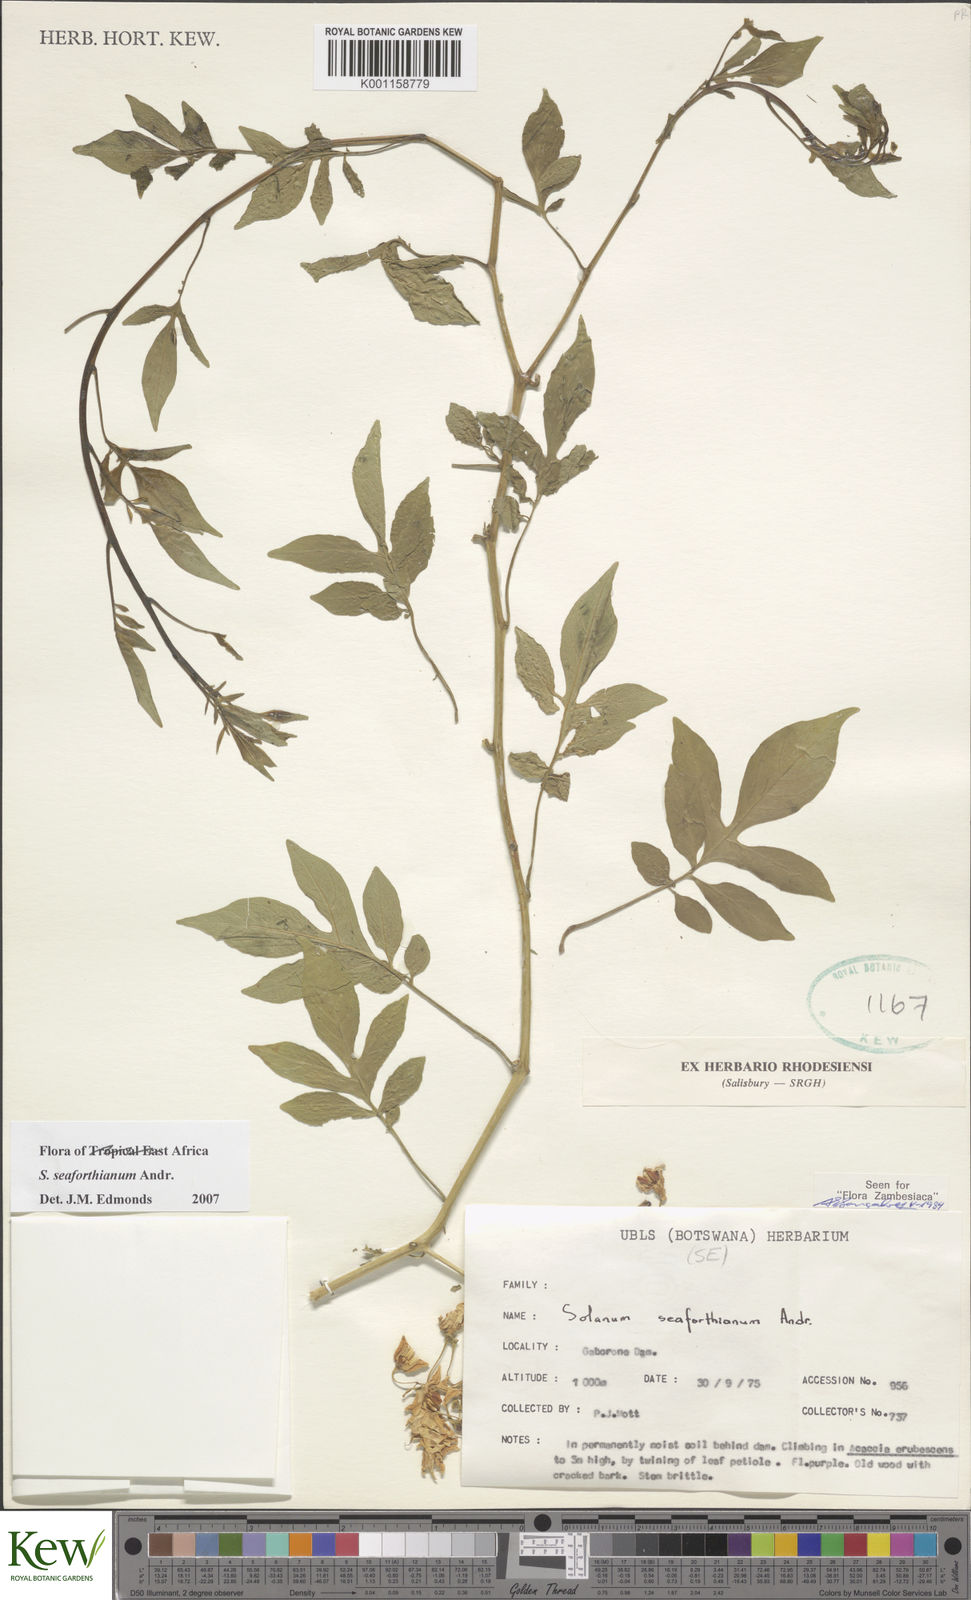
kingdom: Plantae
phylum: Tracheophyta
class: Magnoliopsida
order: Solanales
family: Solanaceae
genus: Solanum
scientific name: Solanum seaforthianum
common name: Brazilian nightshade
